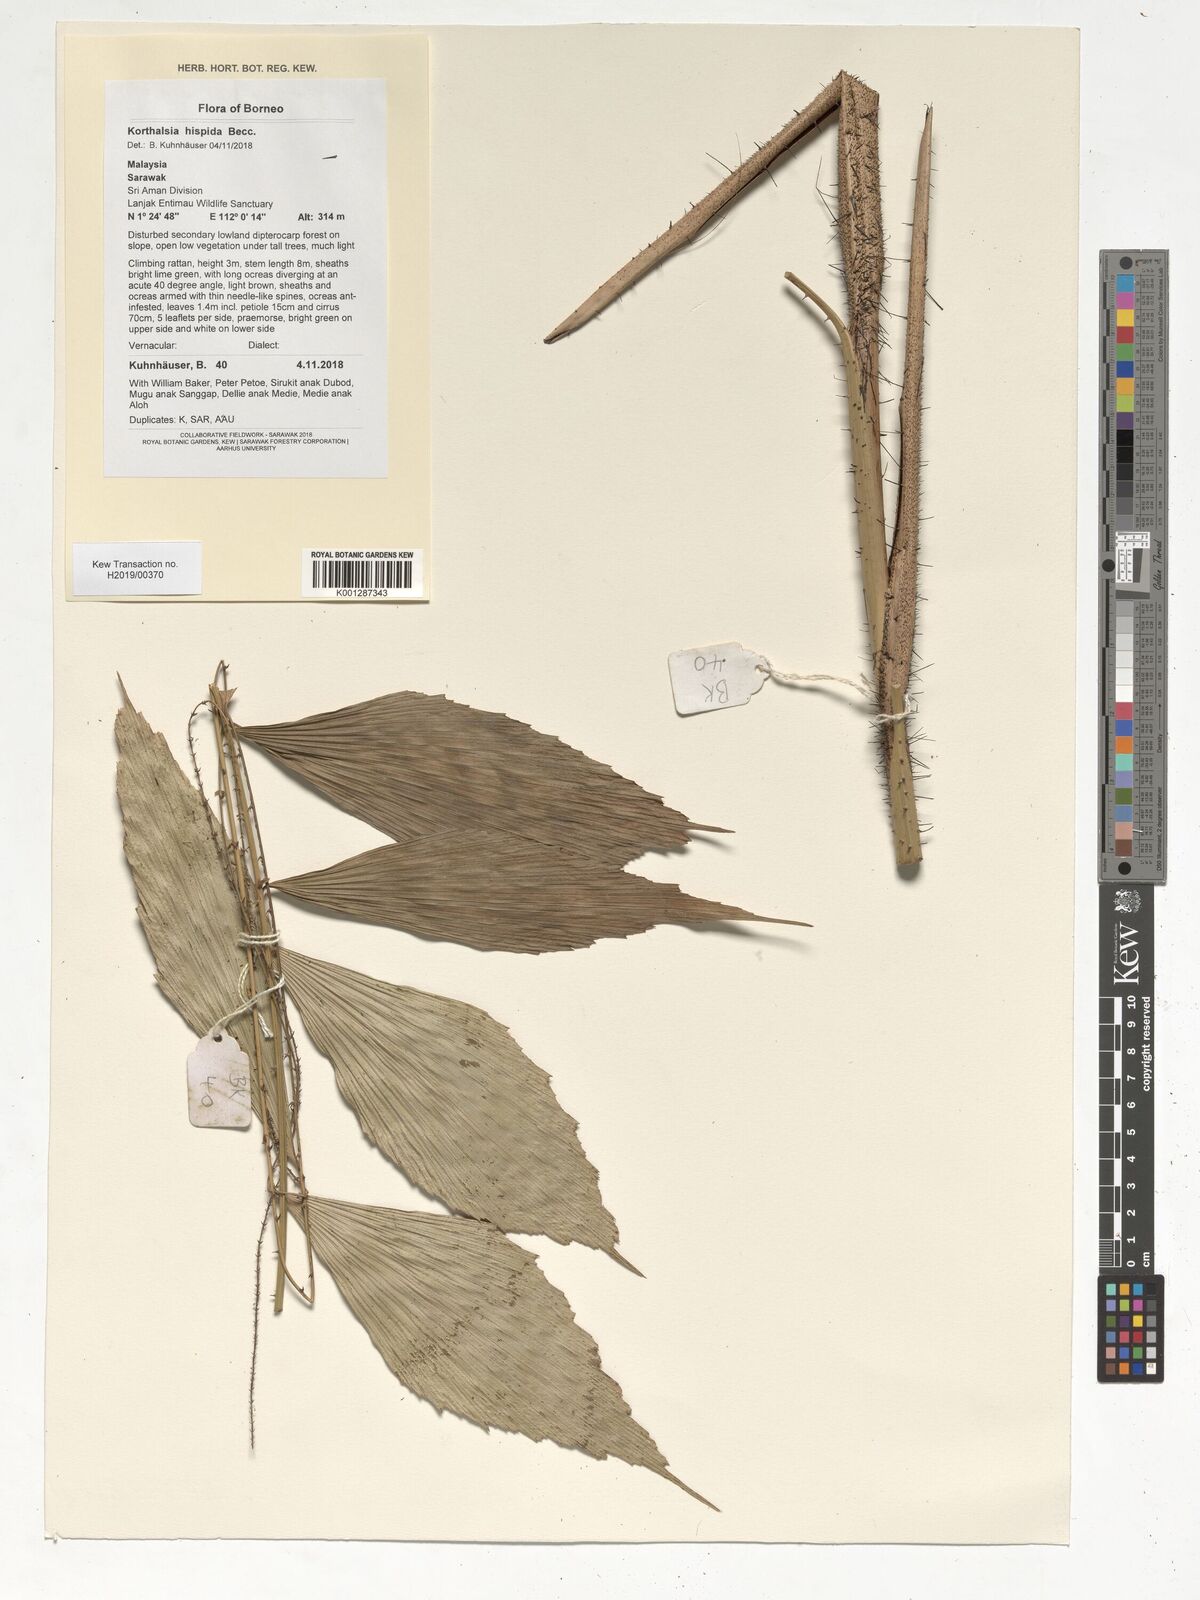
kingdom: Plantae
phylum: Tracheophyta
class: Liliopsida
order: Arecales
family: Arecaceae
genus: Korthalsia
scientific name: Korthalsia hispida
